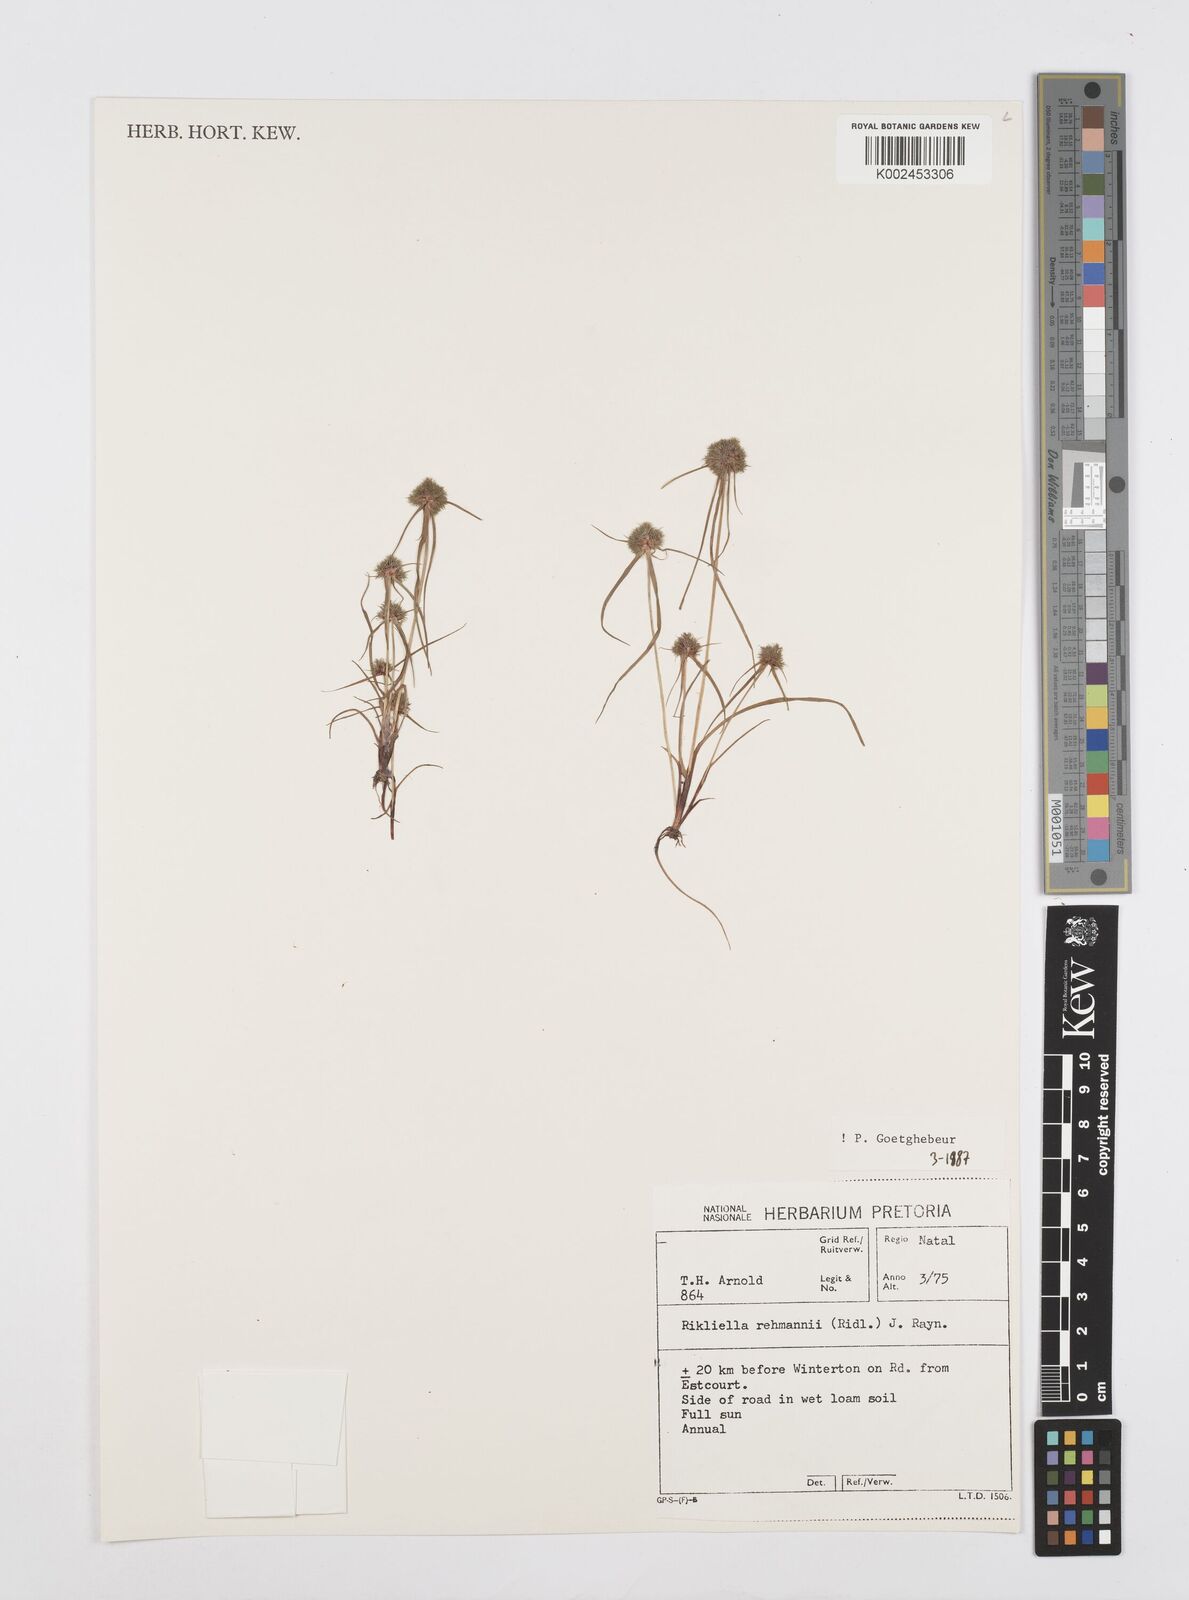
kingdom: Plantae
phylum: Tracheophyta
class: Liliopsida
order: Poales
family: Cyperaceae
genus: Cyperus
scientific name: Cyperus sanguinolentus
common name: Purpleglume flatsedge
